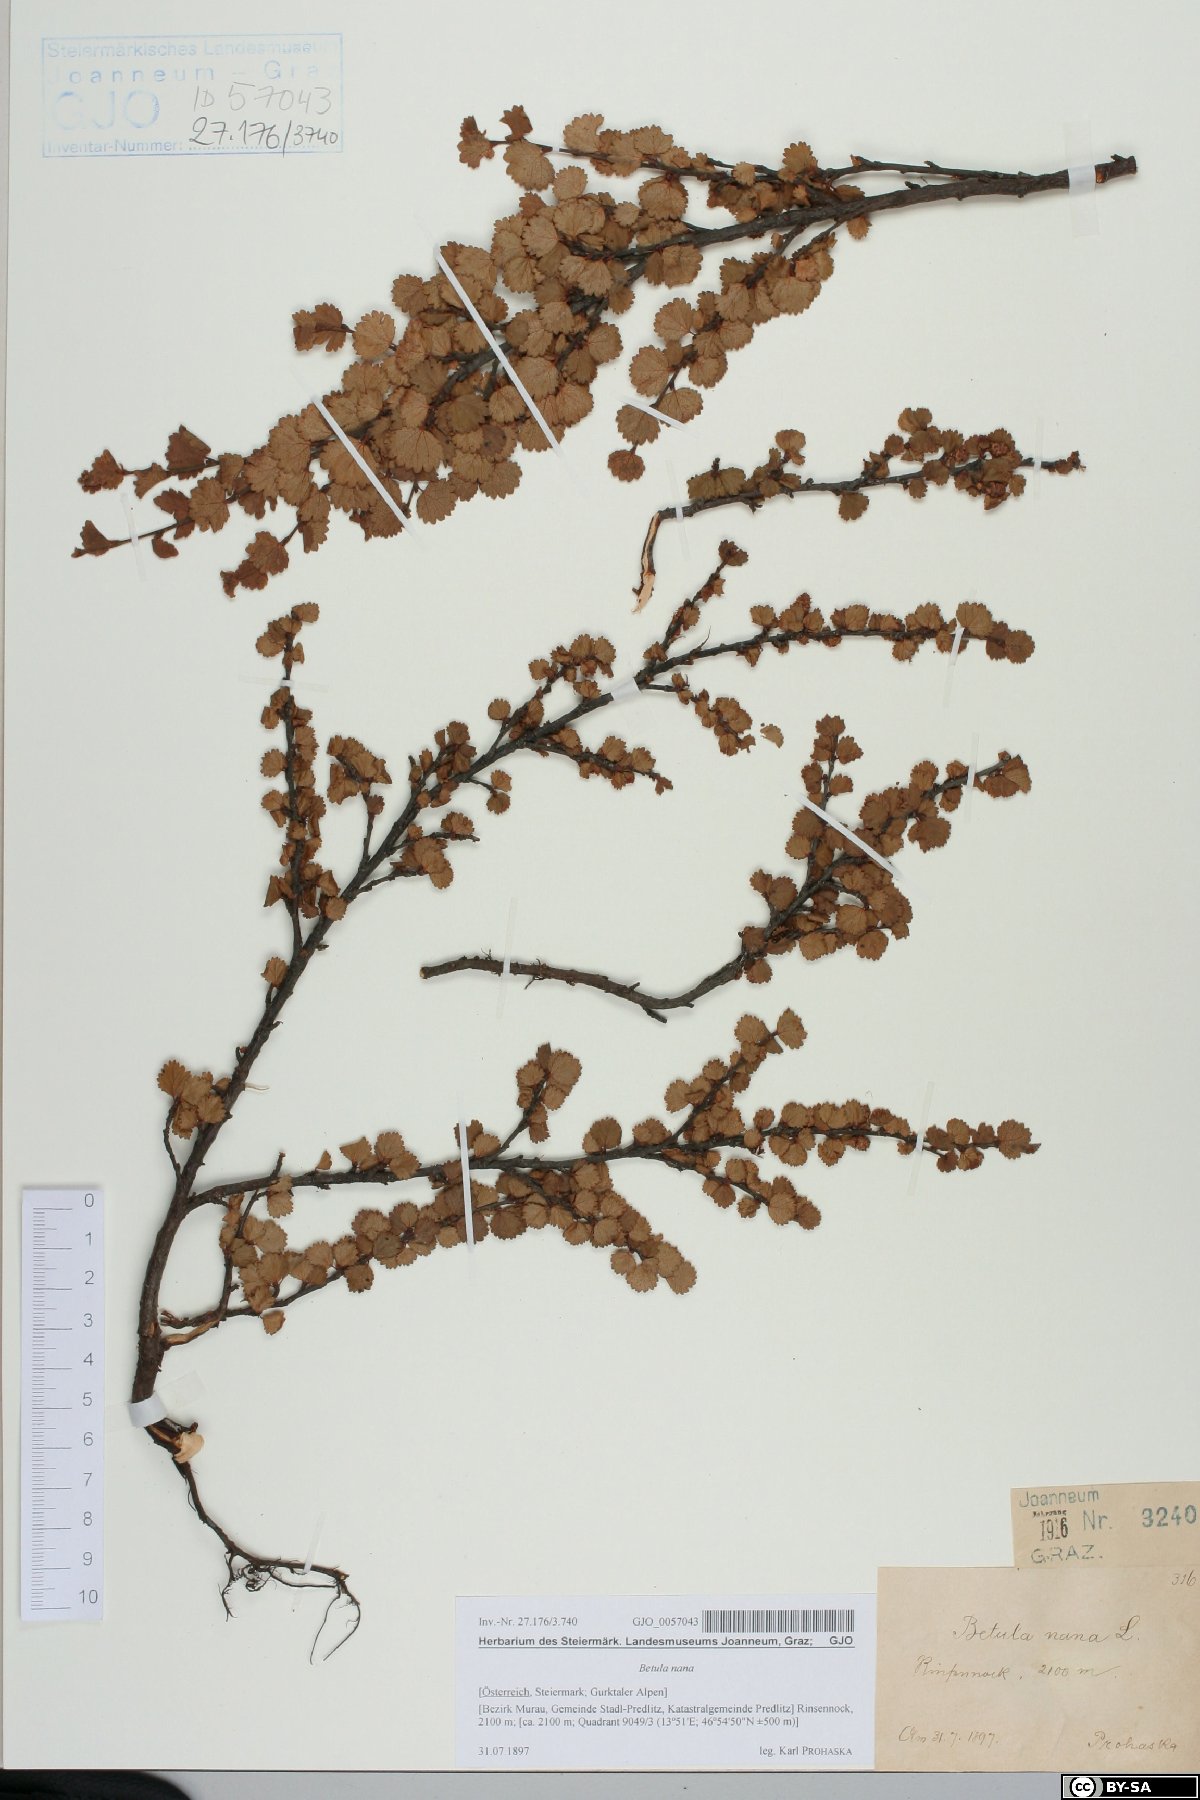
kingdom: Plantae
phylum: Tracheophyta
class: Magnoliopsida
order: Fagales
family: Betulaceae
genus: Betula
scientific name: Betula nana
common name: Arctic dwarf birch
